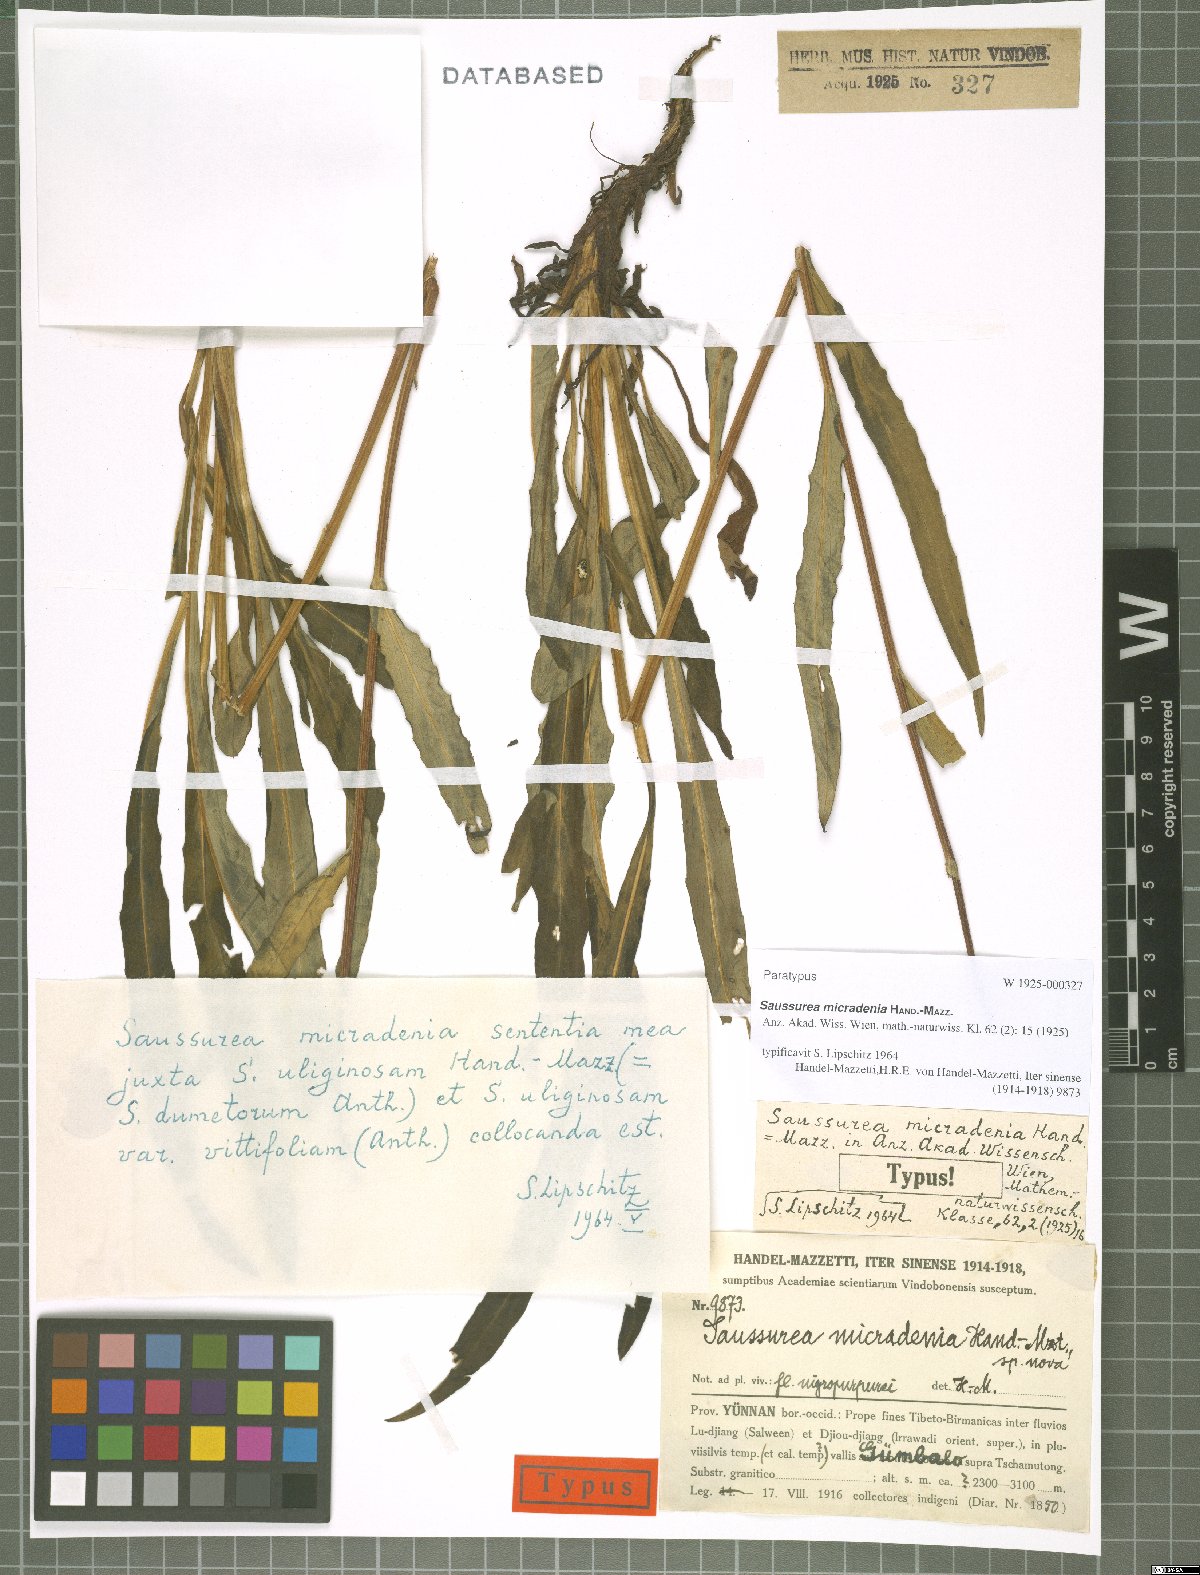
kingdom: Plantae
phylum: Tracheophyta
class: Magnoliopsida
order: Asterales
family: Asteraceae
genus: Saussurea
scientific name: Saussurea micradenia
